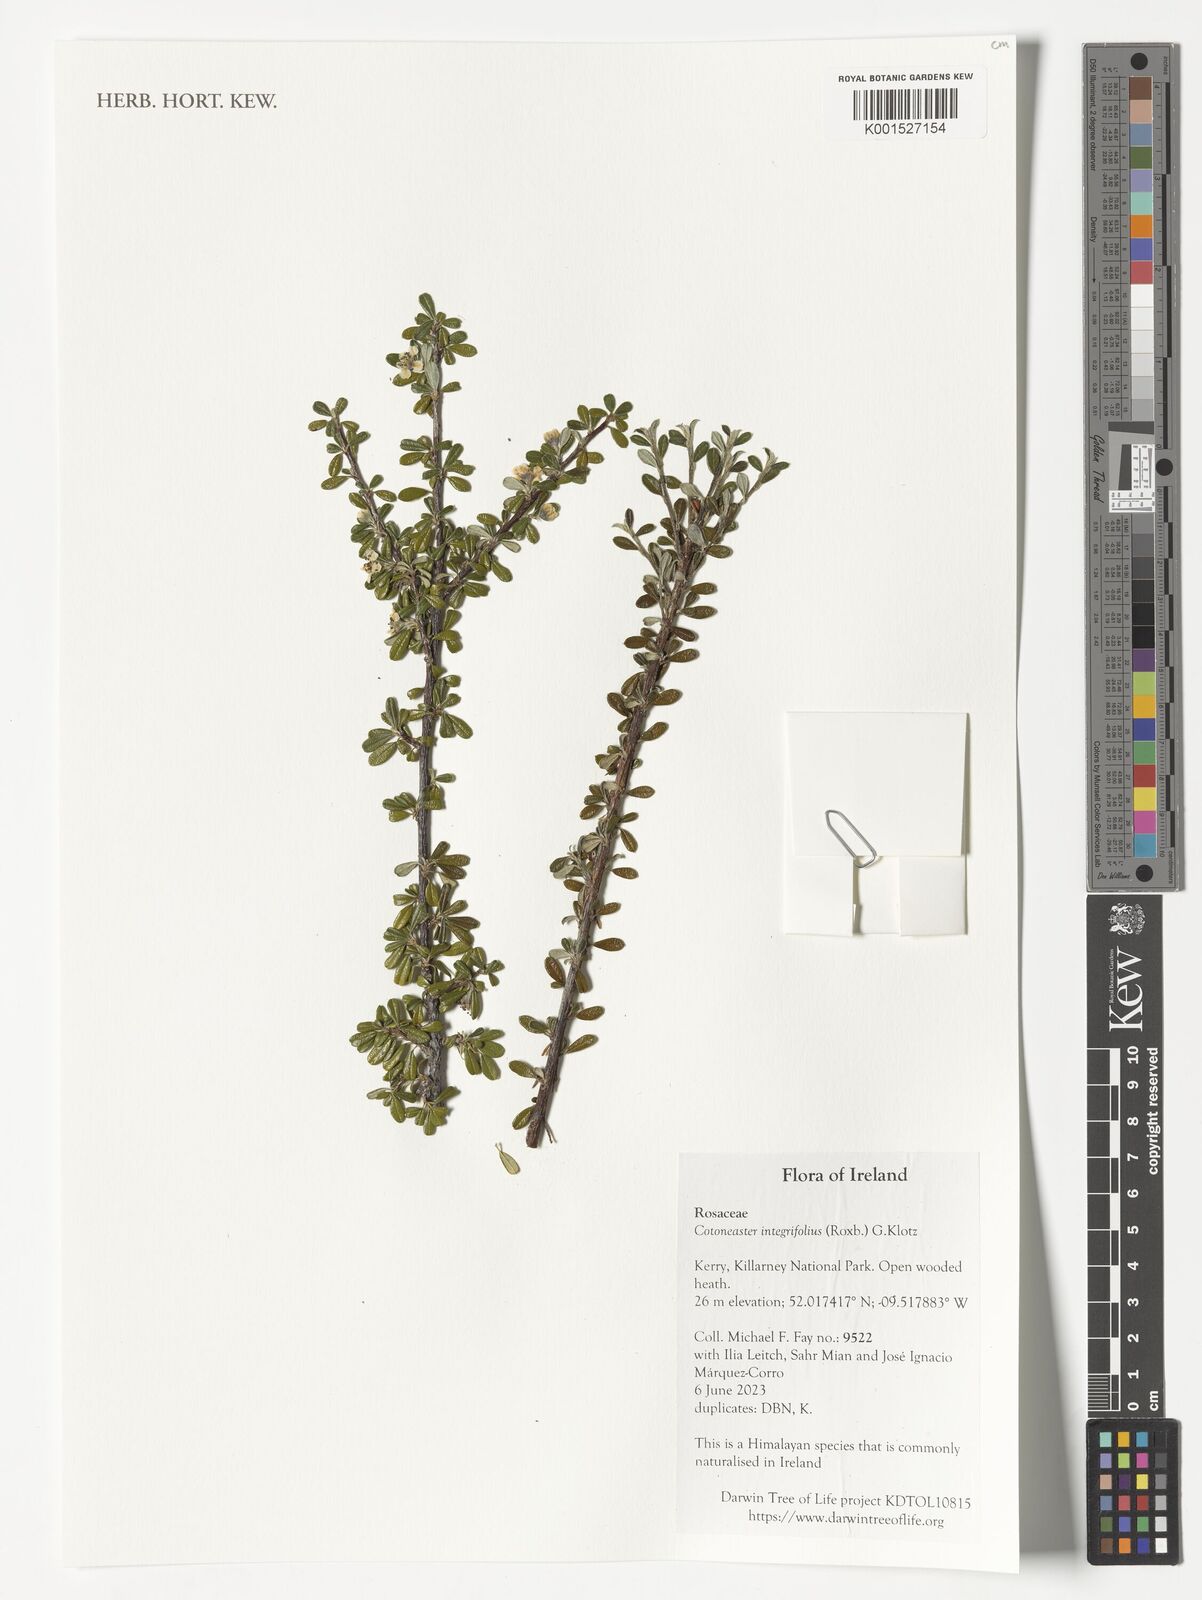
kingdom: Plantae
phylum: Tracheophyta
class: Magnoliopsida
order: Rosales
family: Rosaceae
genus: Cotoneaster
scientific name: Cotoneaster integrifolius
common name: Entire-leaved cotoneaster
